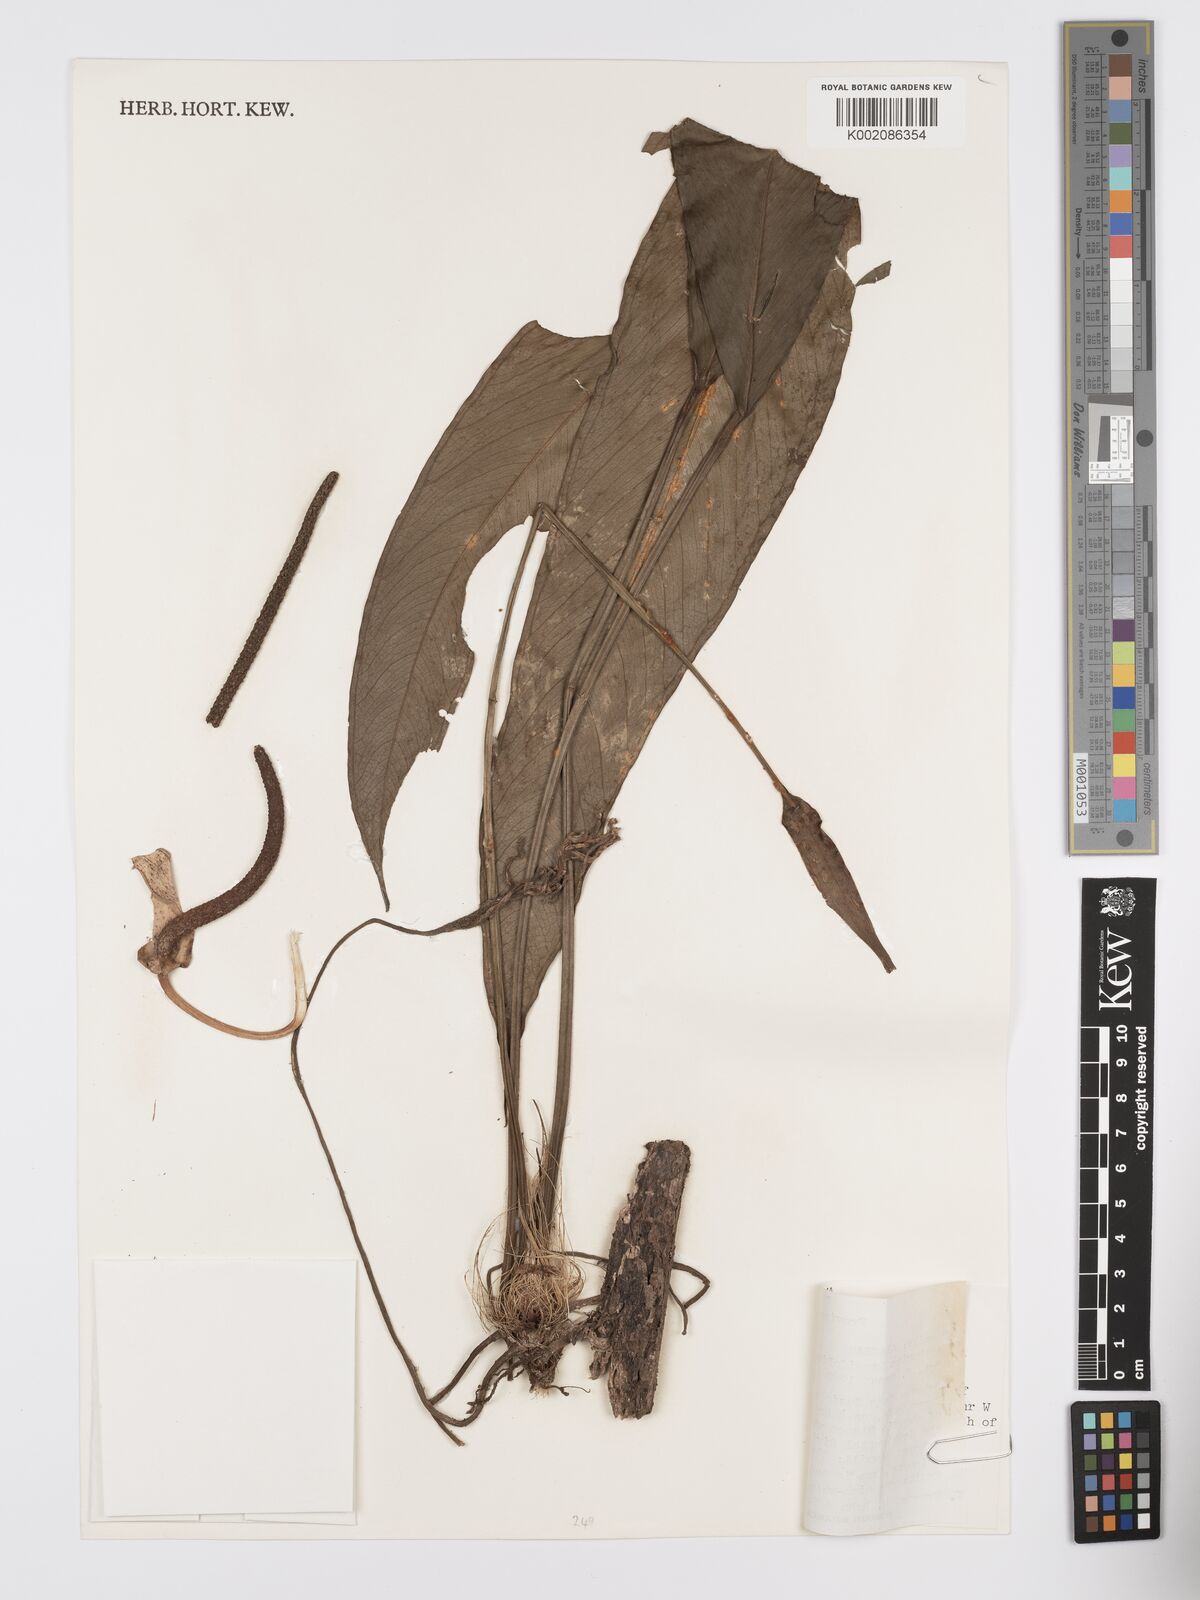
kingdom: Plantae
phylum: Tracheophyta
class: Liliopsida
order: Alismatales
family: Araceae
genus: Anthurium
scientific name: Anthurium lancifolium
